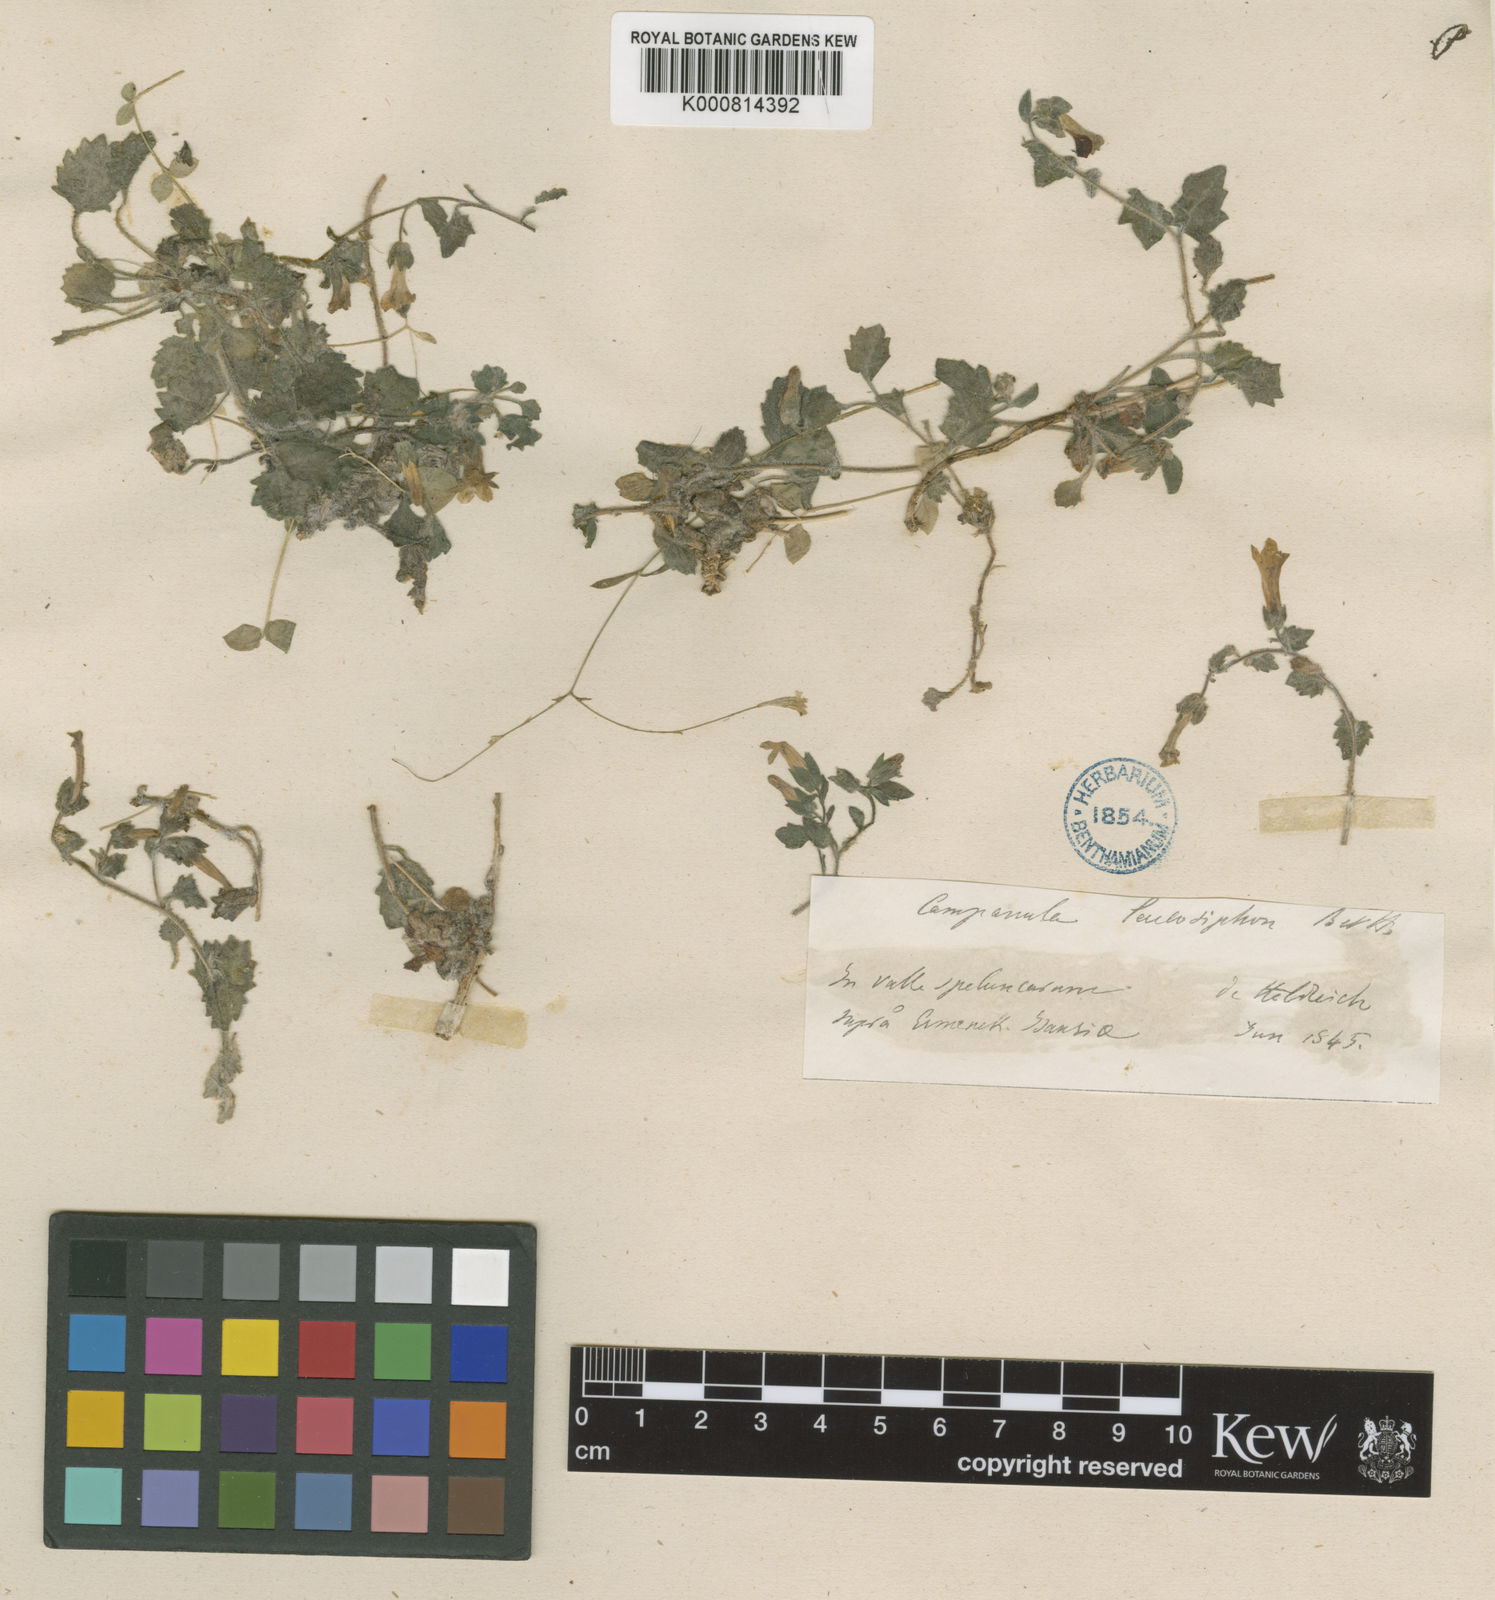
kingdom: Plantae
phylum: Tracheophyta
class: Magnoliopsida
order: Asterales
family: Campanulaceae
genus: Campanula
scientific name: Campanula leucosiphon
